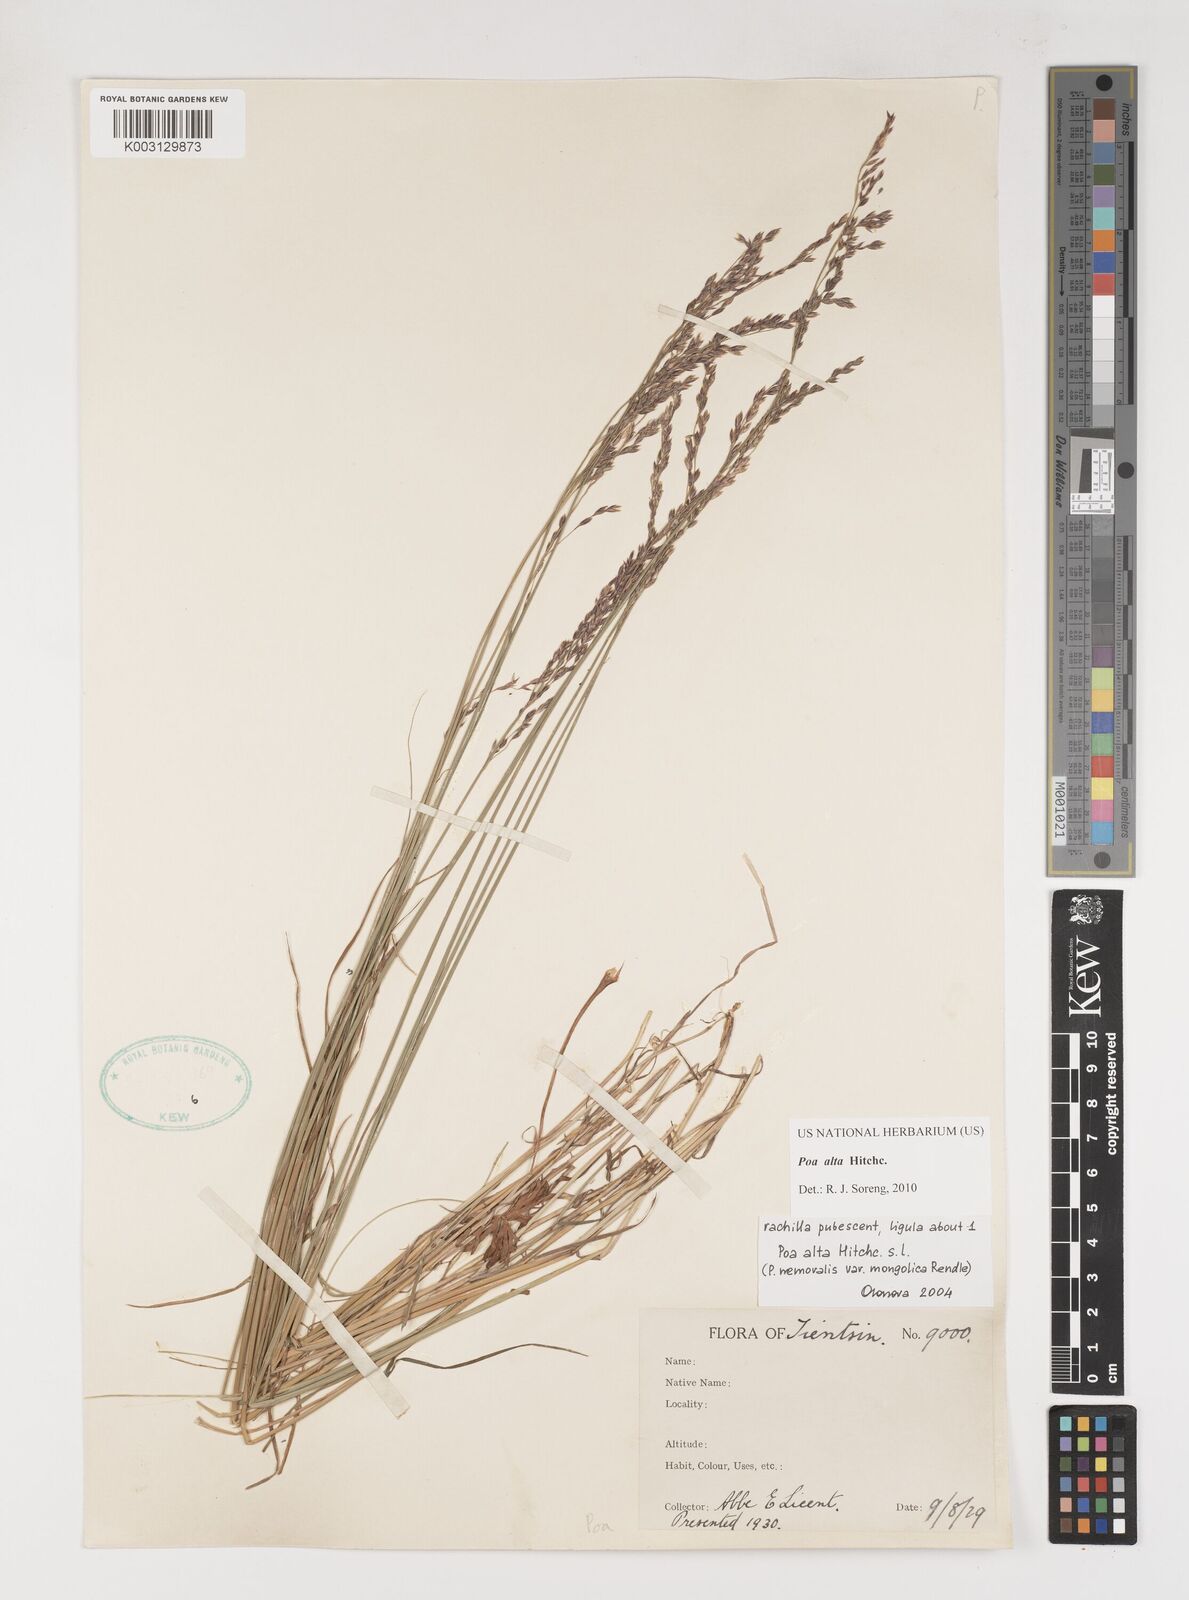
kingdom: Plantae
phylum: Tracheophyta
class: Liliopsida
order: Poales
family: Poaceae
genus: Poa
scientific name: Poa alta
